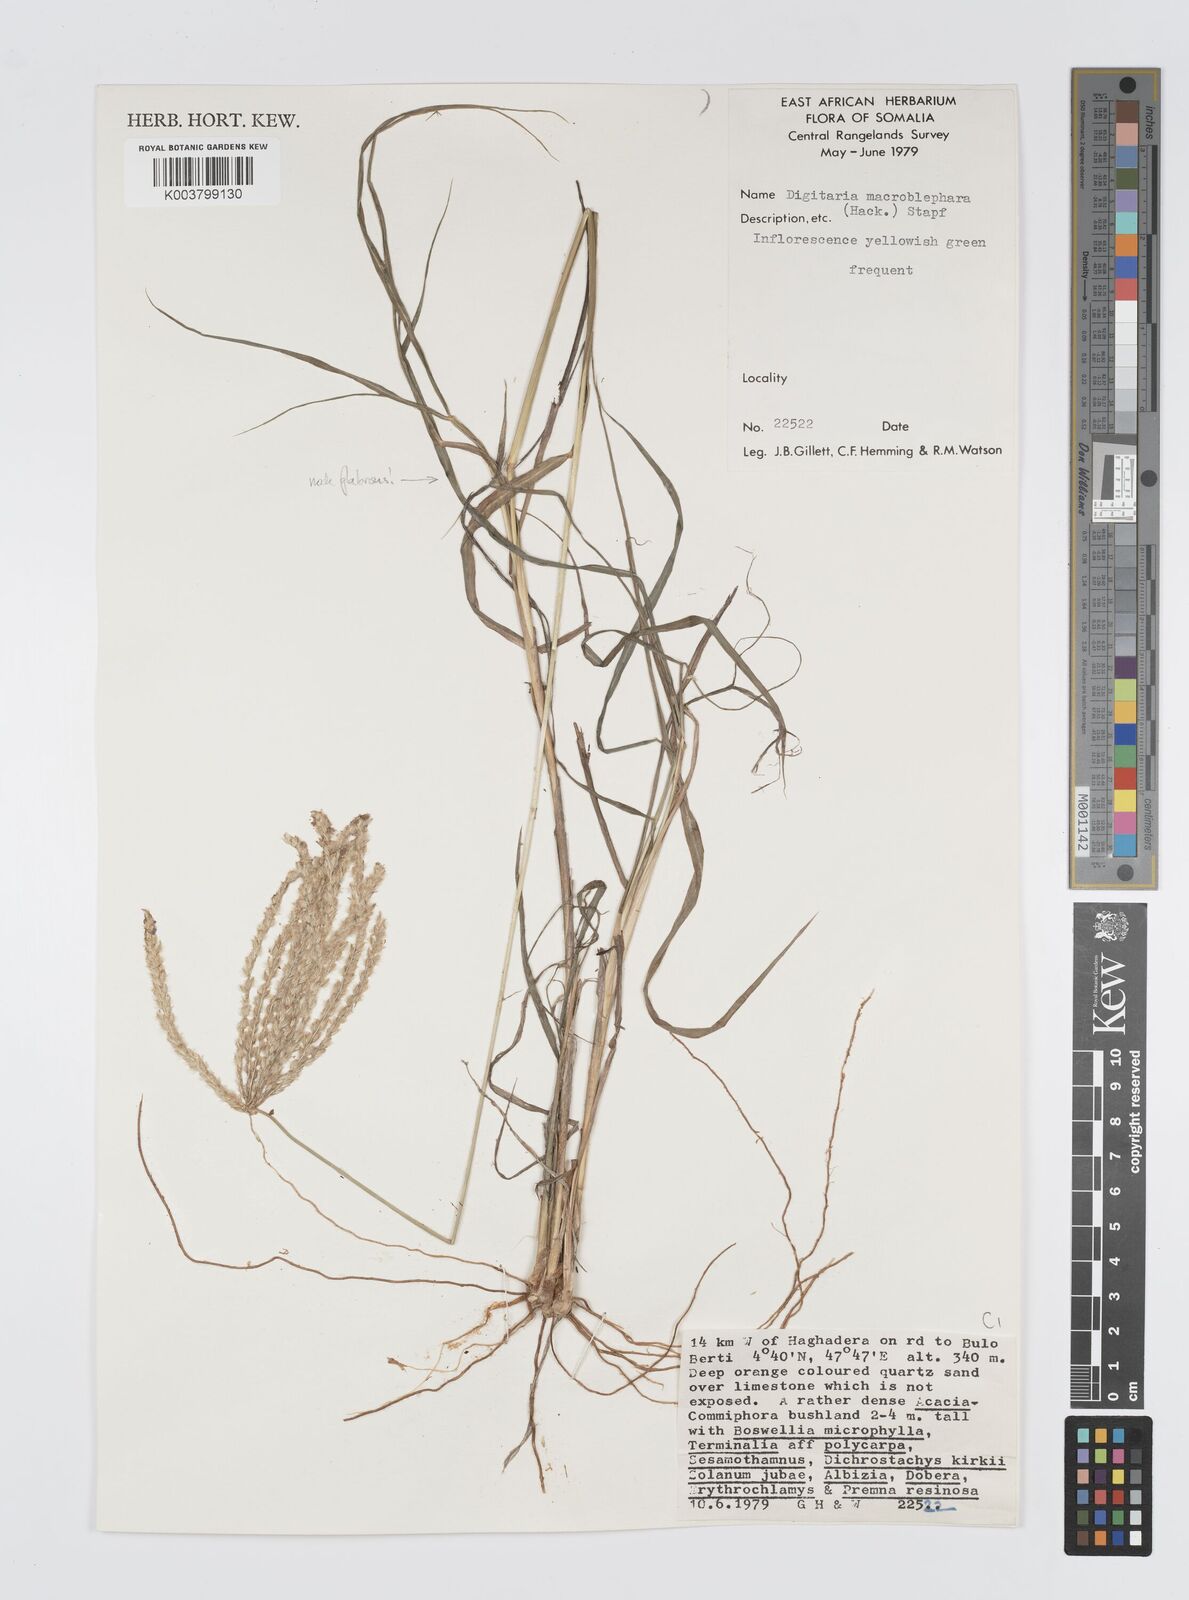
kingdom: Plantae
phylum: Tracheophyta
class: Liliopsida
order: Poales
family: Poaceae
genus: Digitaria
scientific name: Digitaria macroblephara
